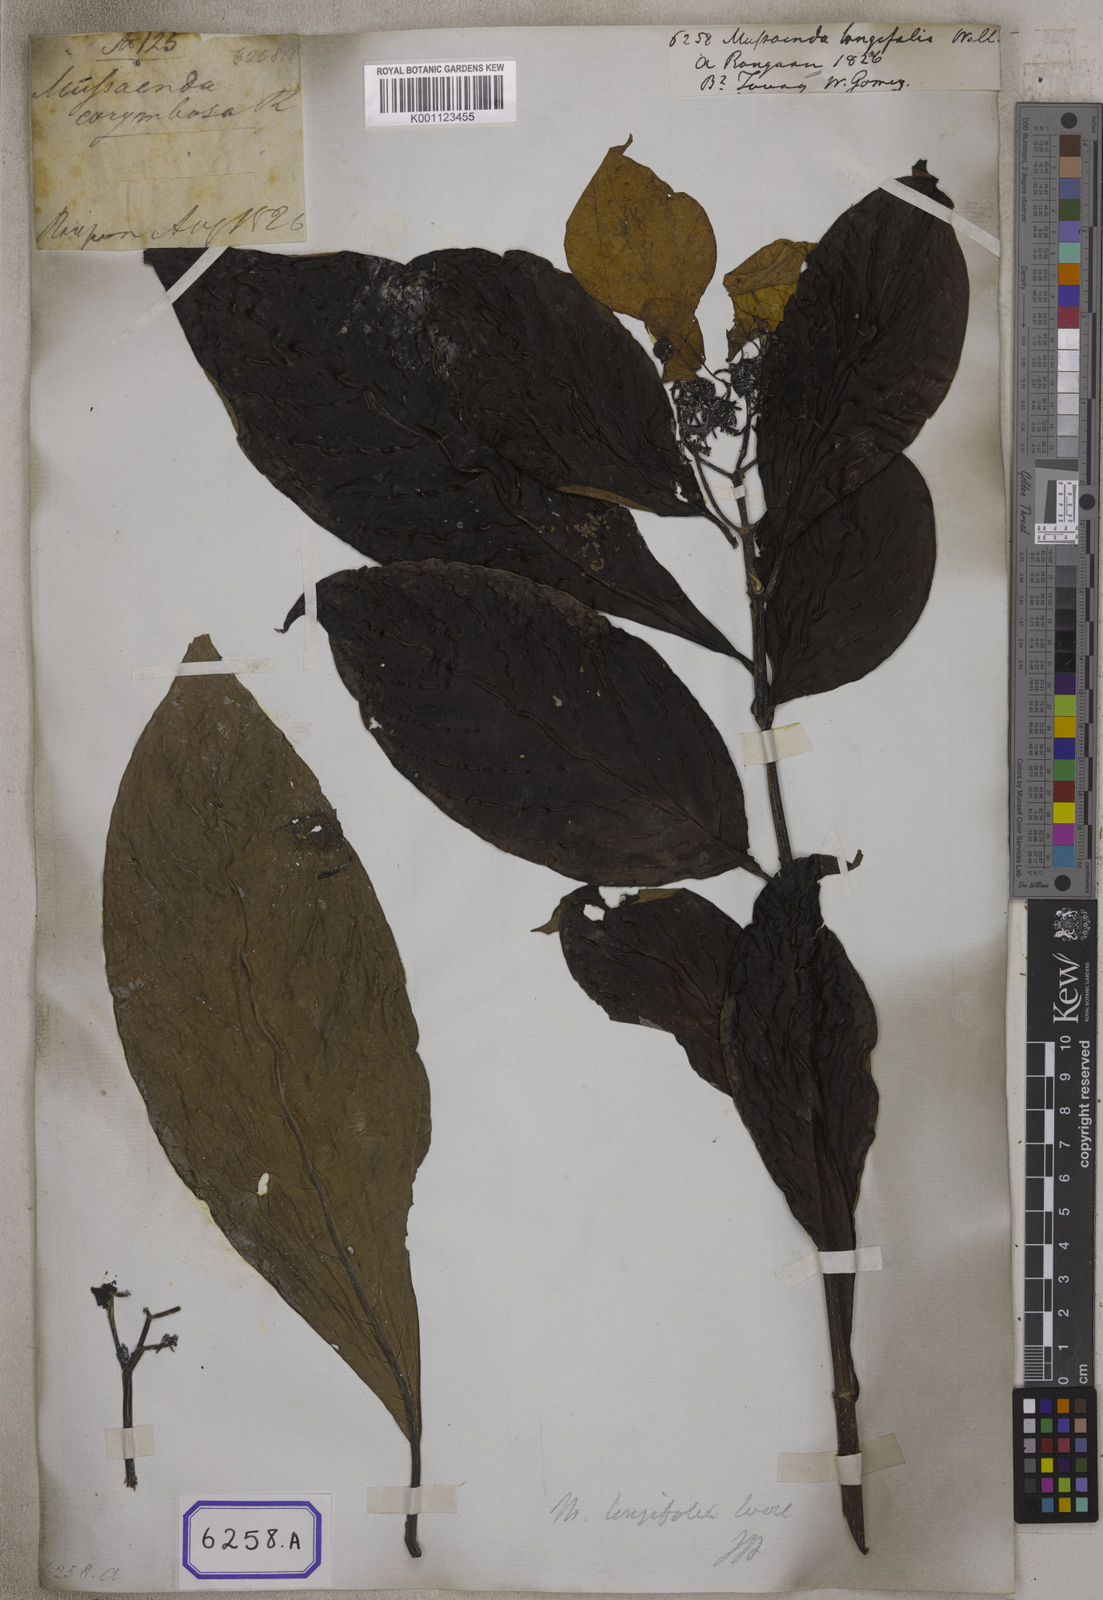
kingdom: Plantae
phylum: Tracheophyta
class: Magnoliopsida
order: Gentianales
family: Rubiaceae
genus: Mussaenda
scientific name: Mussaenda
